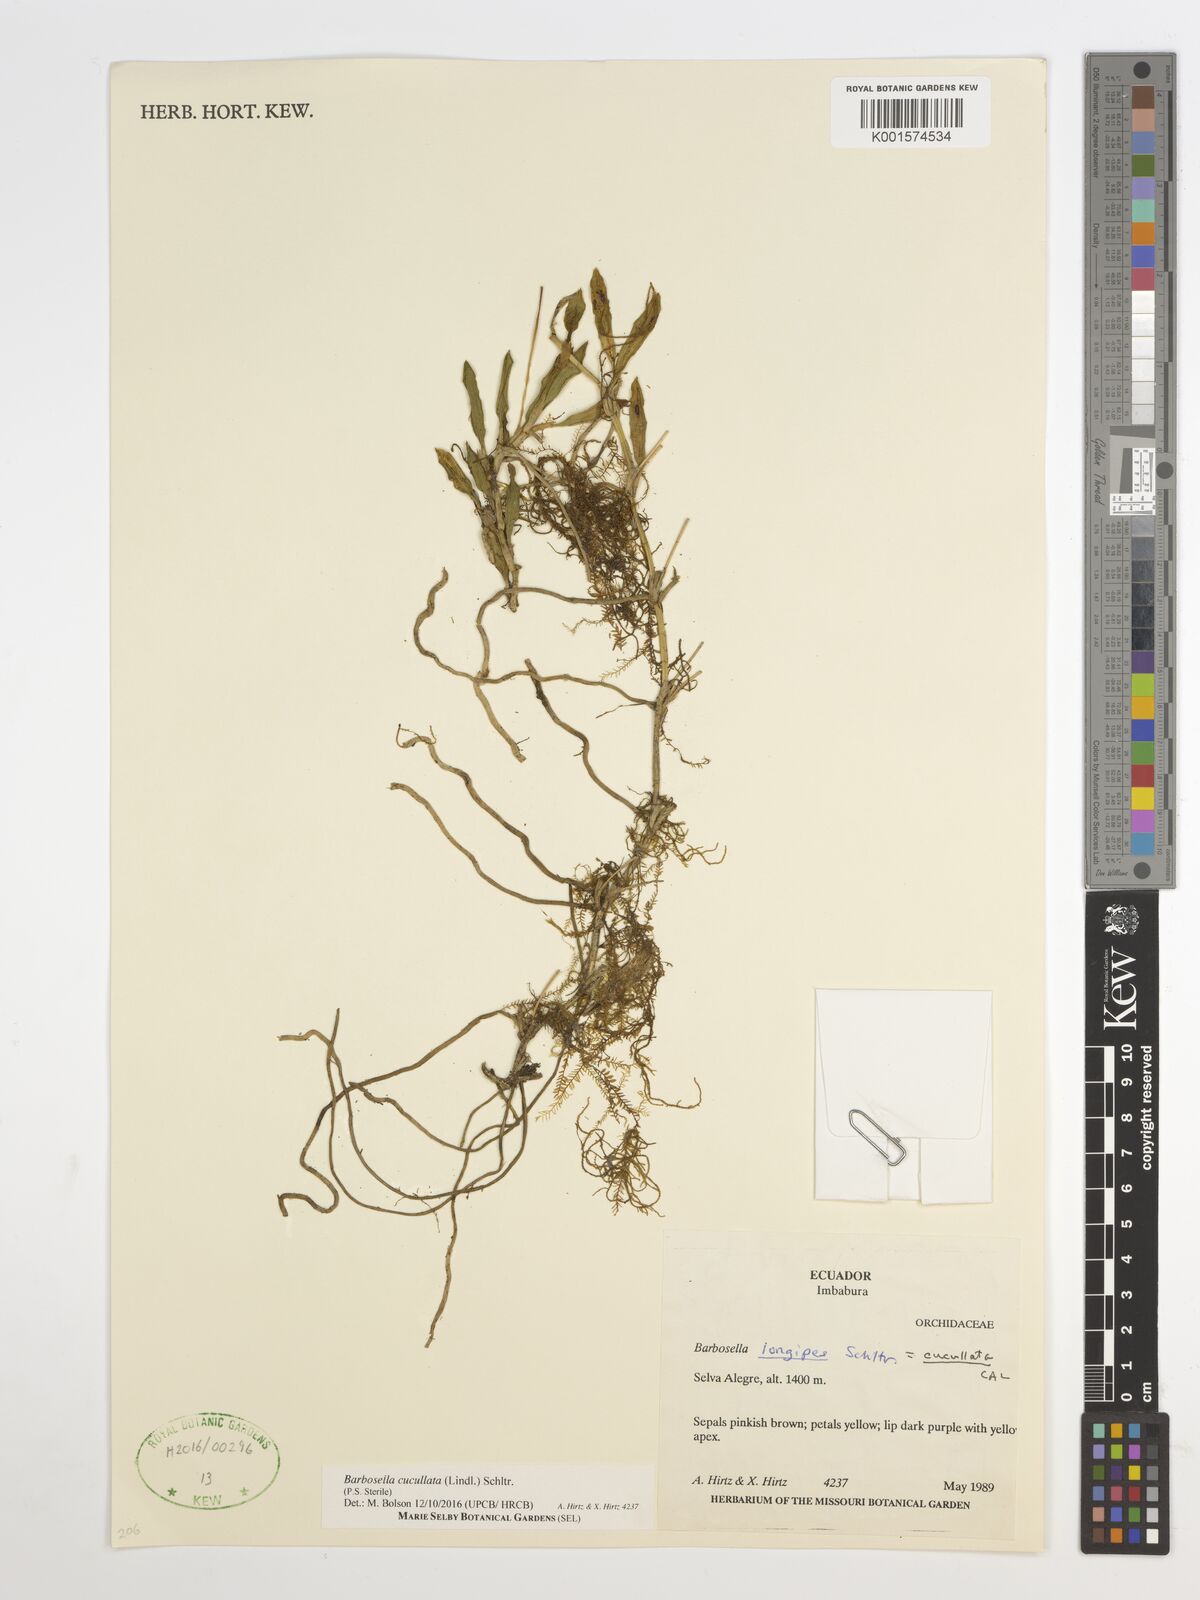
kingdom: Plantae
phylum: Tracheophyta
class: Liliopsida
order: Asparagales
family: Orchidaceae
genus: Barbosella
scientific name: Barbosella cucullata
